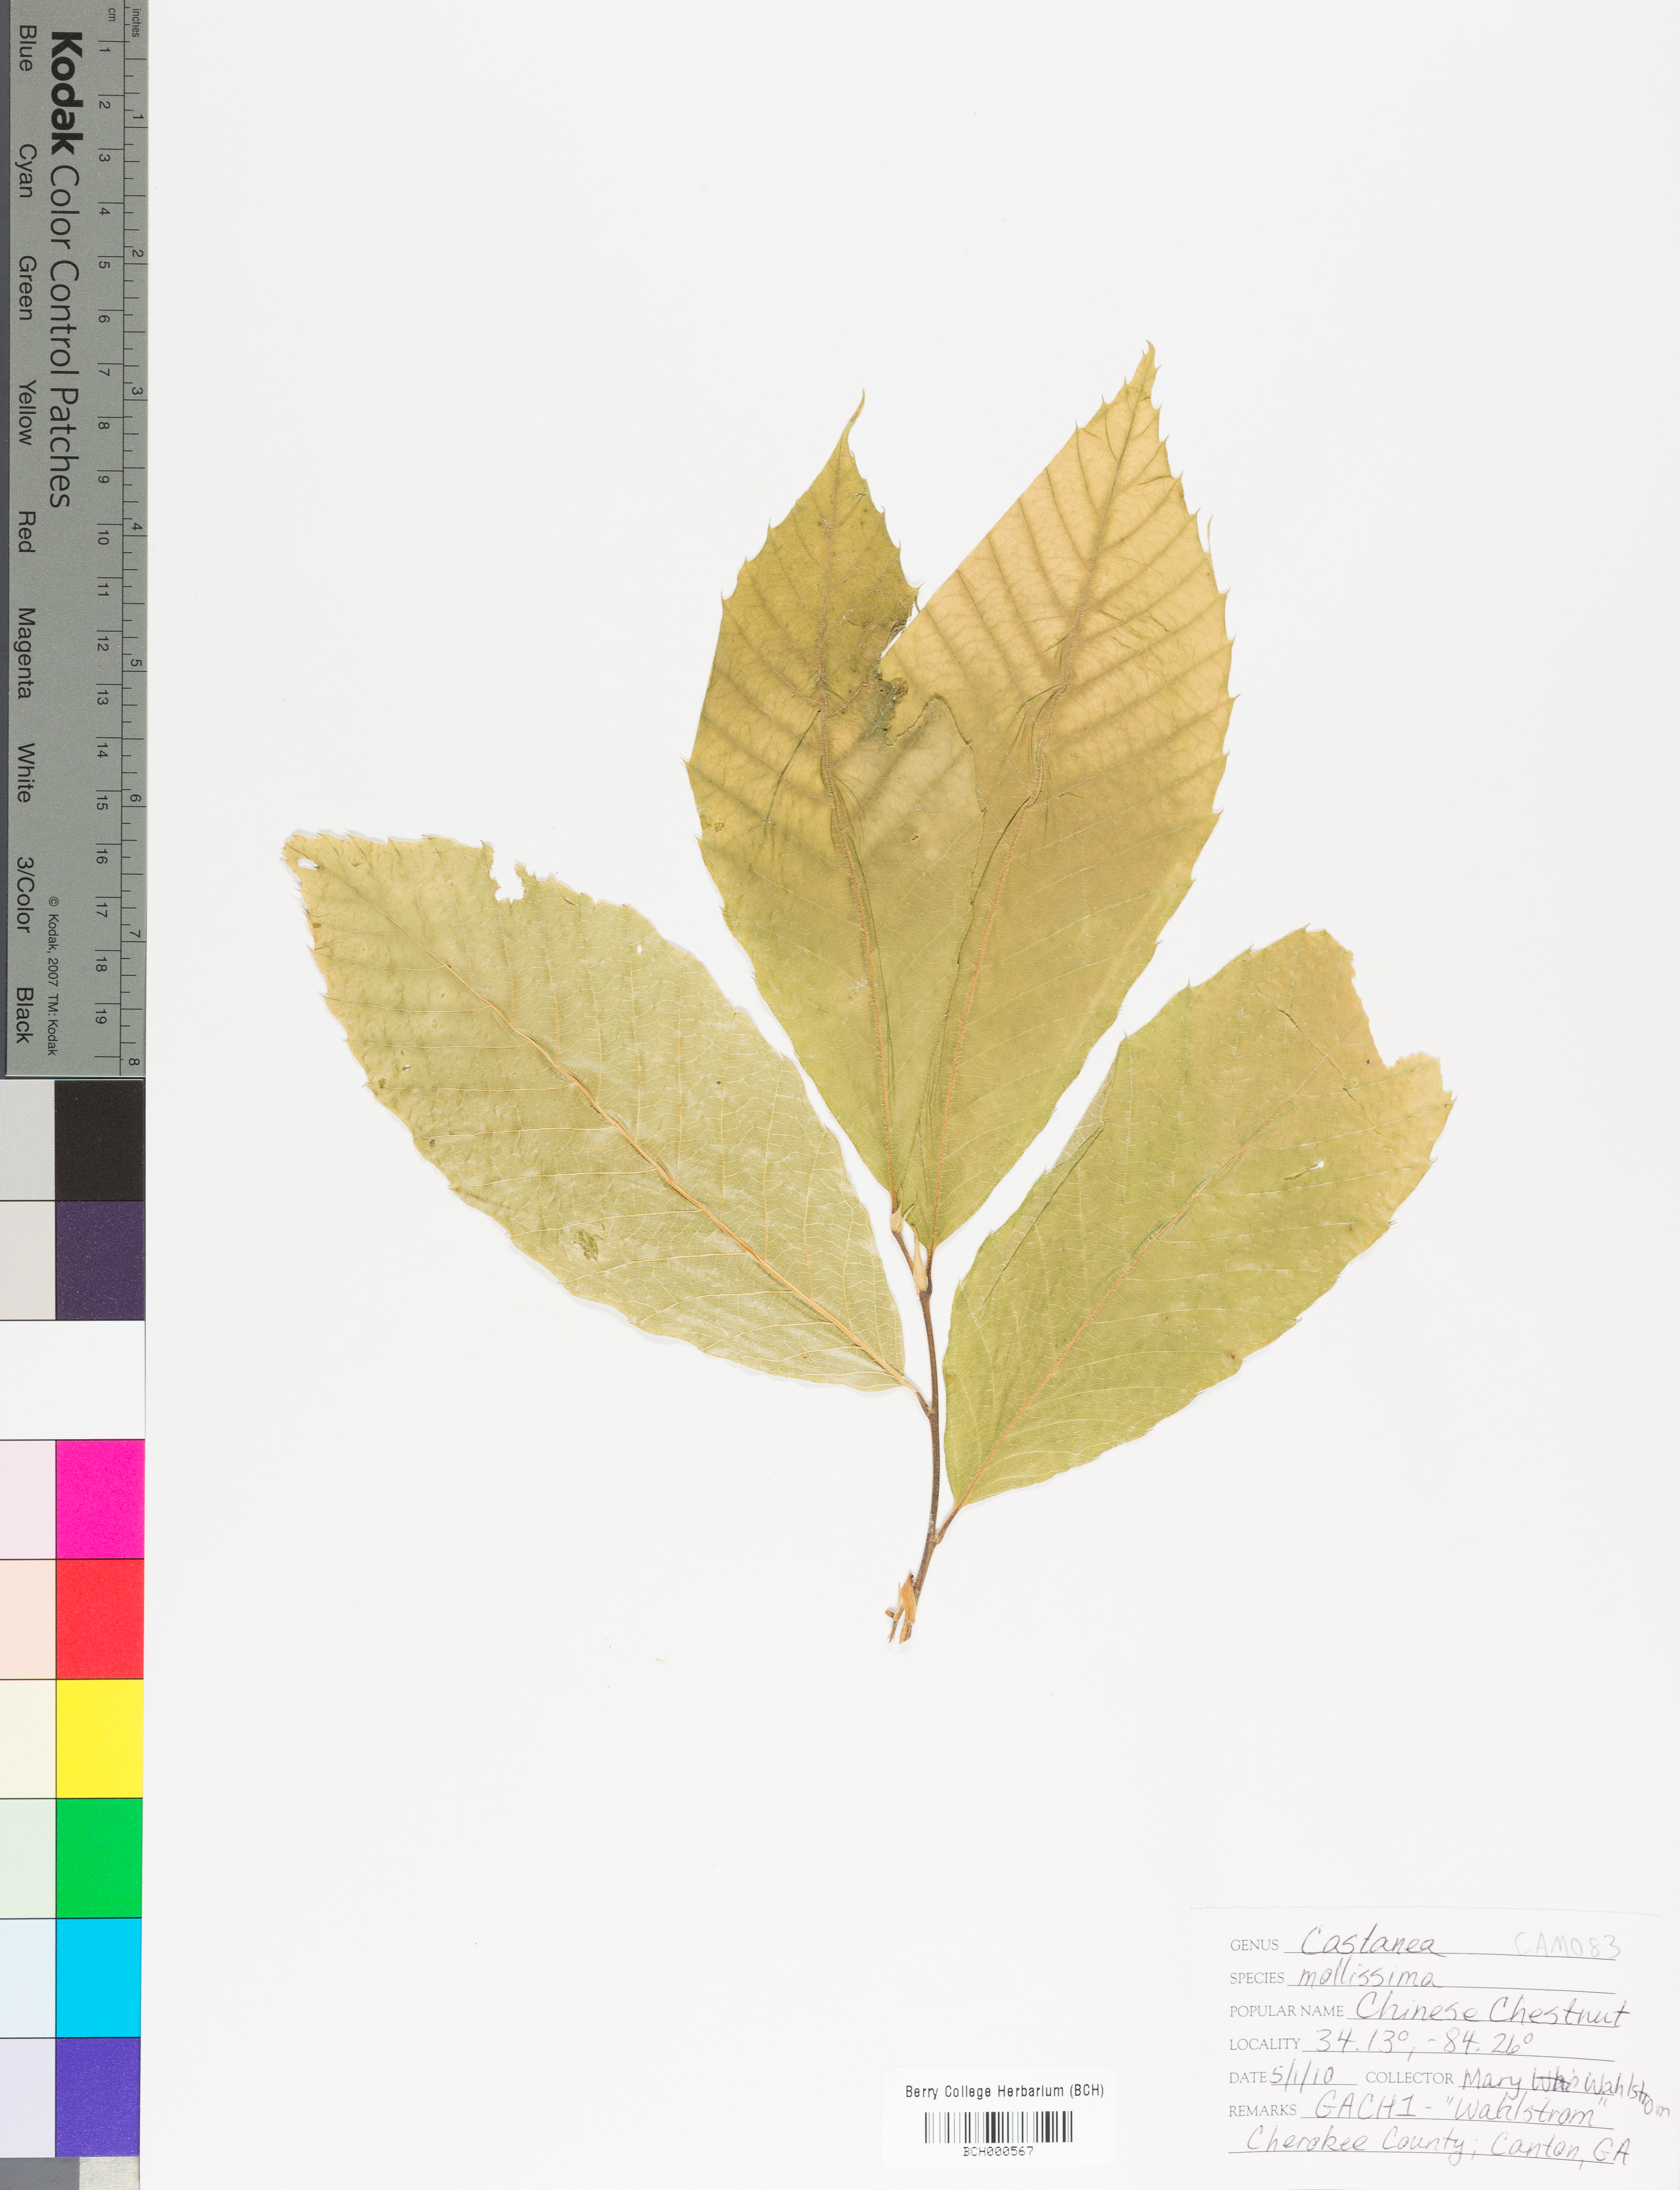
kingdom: Plantae
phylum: Tracheophyta
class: Magnoliopsida
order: Fagales
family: Fagaceae
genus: Castanea
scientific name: Castanea mollissima
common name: Chinese chestnut
